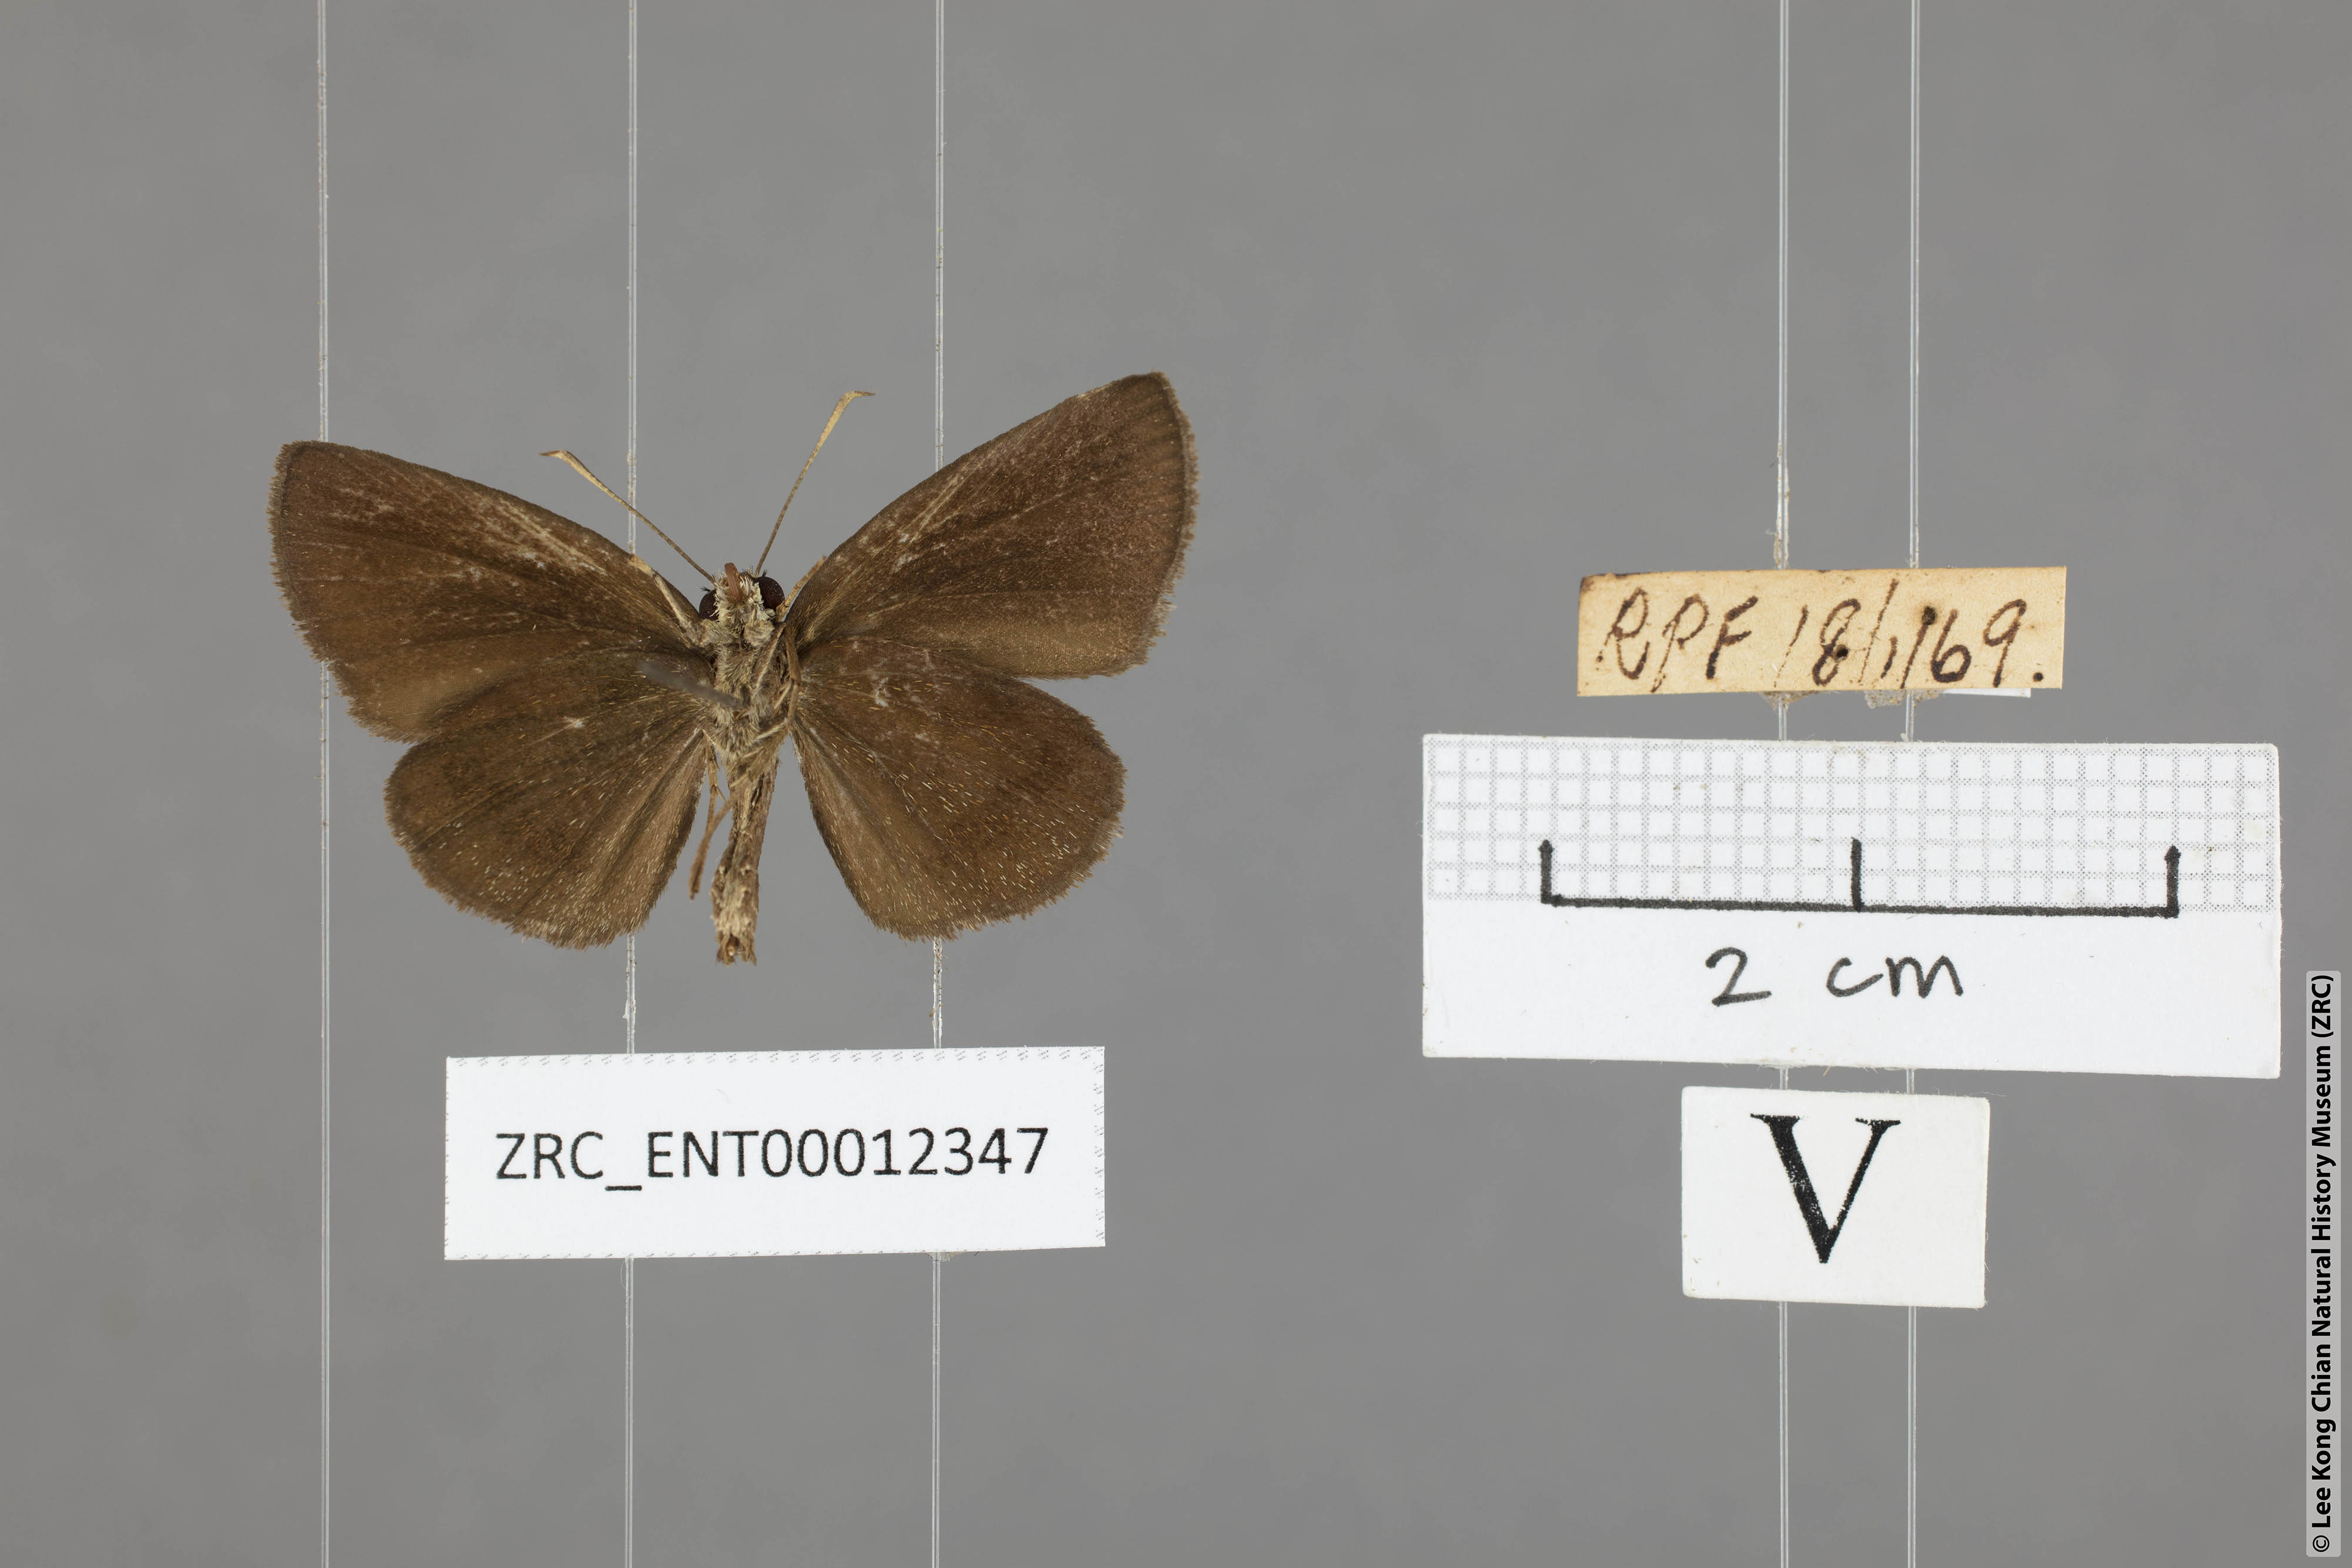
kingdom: Animalia
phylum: Arthropoda
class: Insecta
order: Lepidoptera
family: Hesperiidae
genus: Astictopterus
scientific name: Astictopterus jama
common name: Forest hopper
